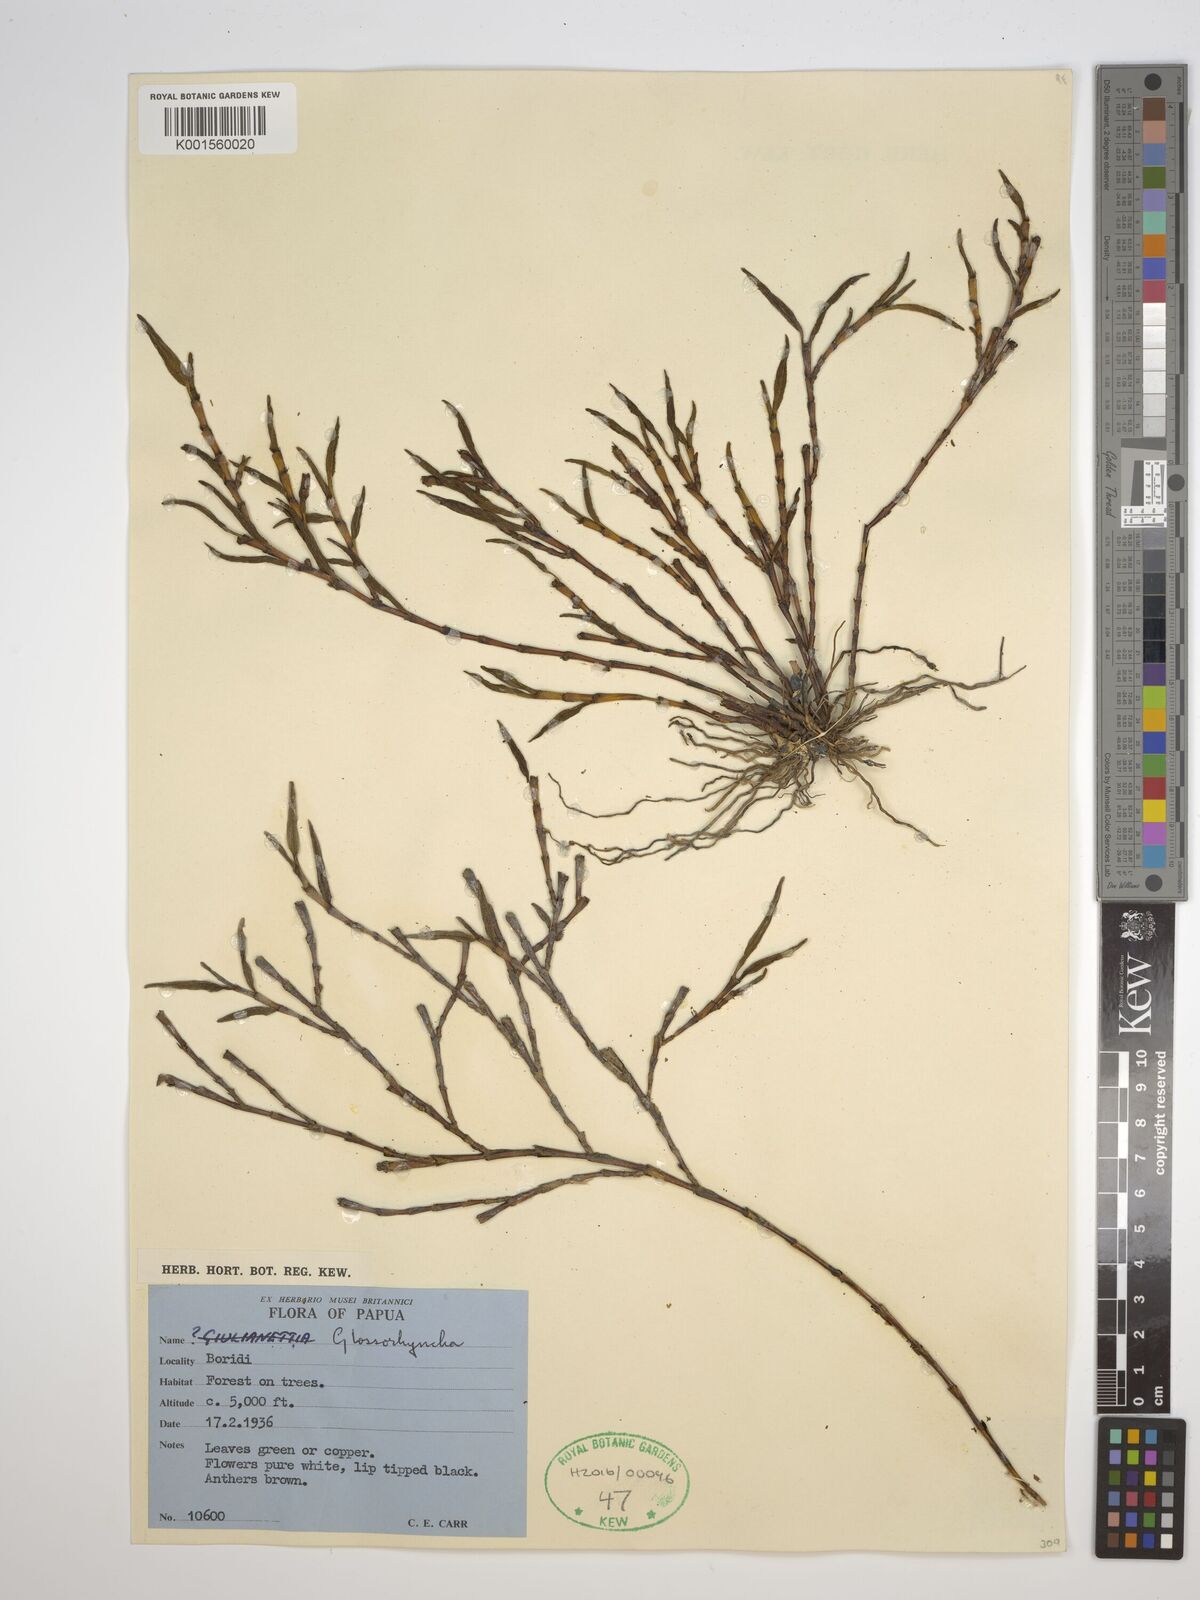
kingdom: Plantae
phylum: Tracheophyta
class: Liliopsida
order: Asparagales
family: Orchidaceae
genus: Glomera
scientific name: Glomera
